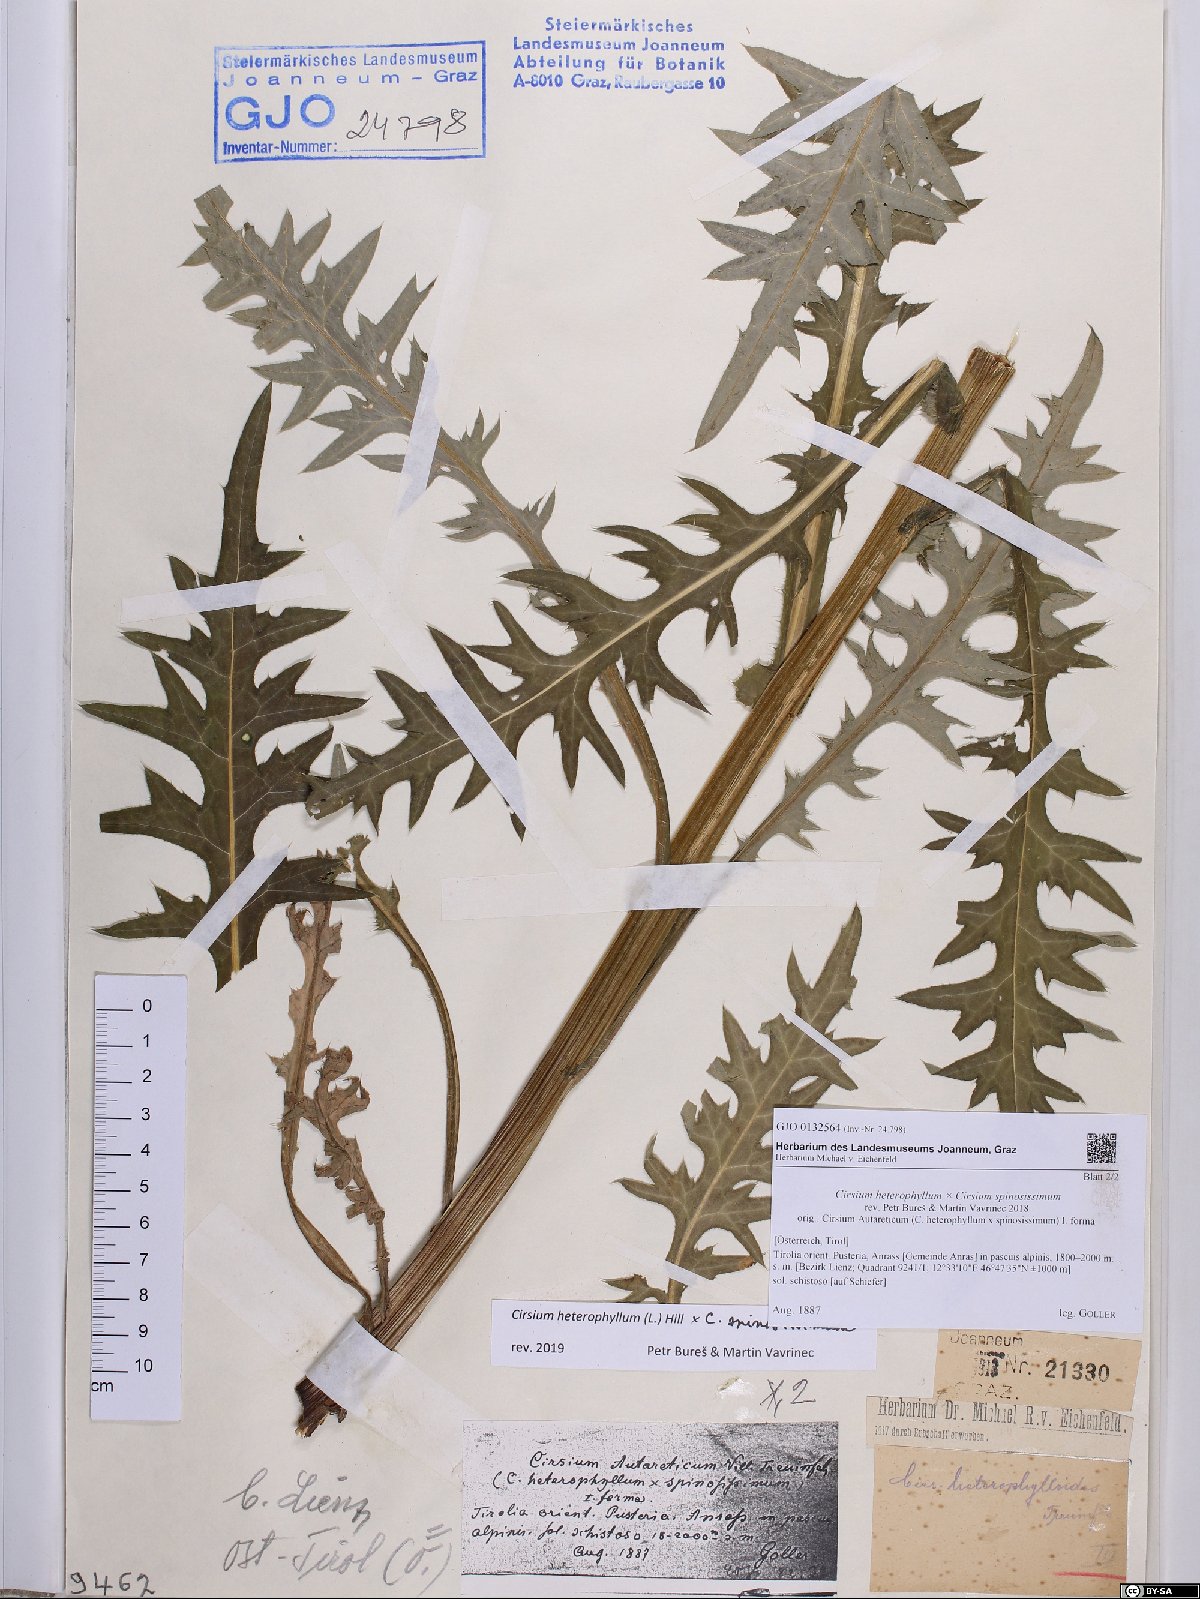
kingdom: Plantae
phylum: Tracheophyta
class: Magnoliopsida
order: Asterales
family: Asteraceae
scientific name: Asteraceae
